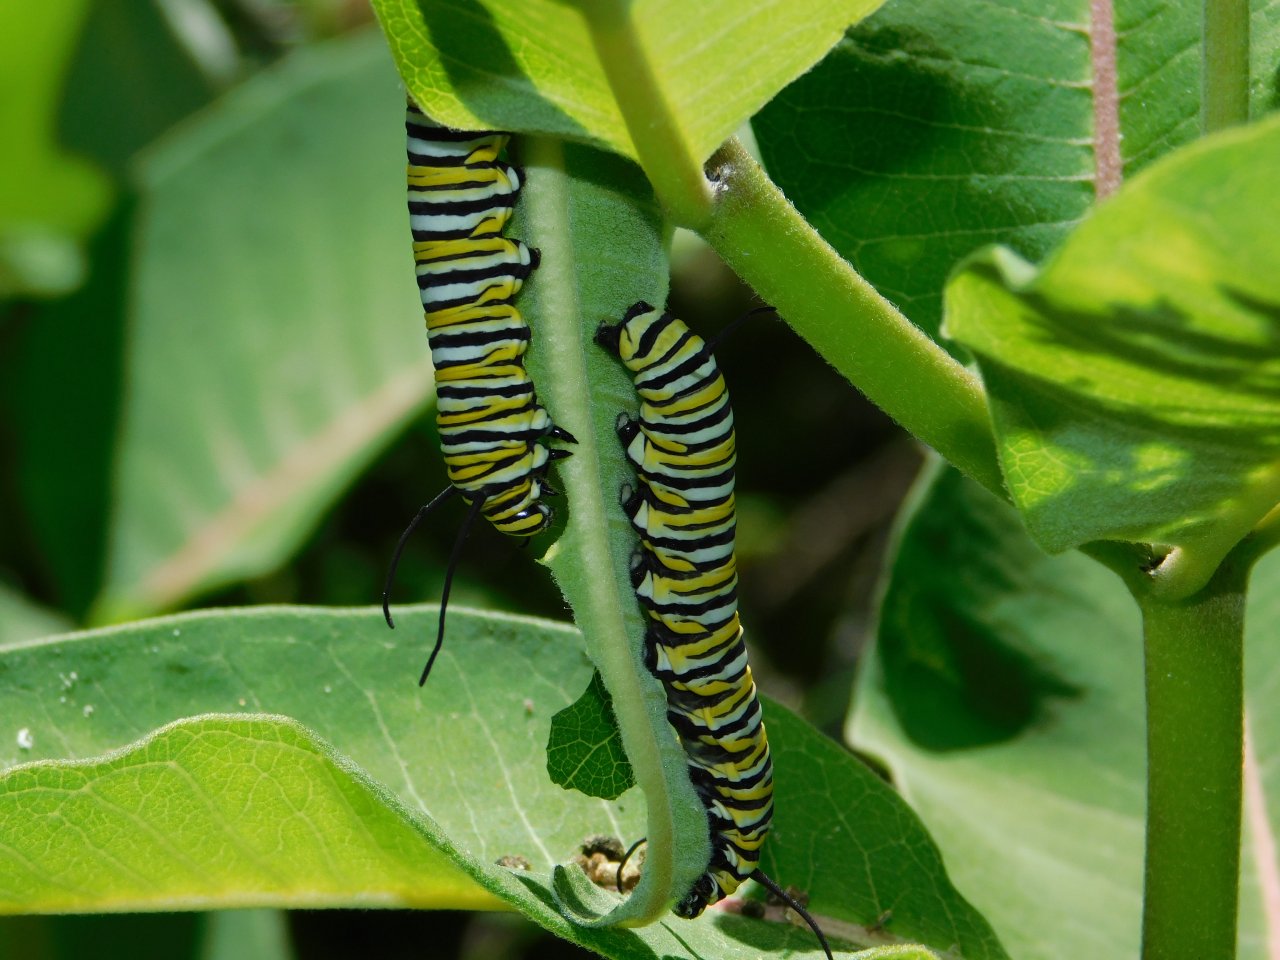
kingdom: Animalia
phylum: Arthropoda
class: Insecta
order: Lepidoptera
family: Nymphalidae
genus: Danaus
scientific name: Danaus plexippus
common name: Monarch
